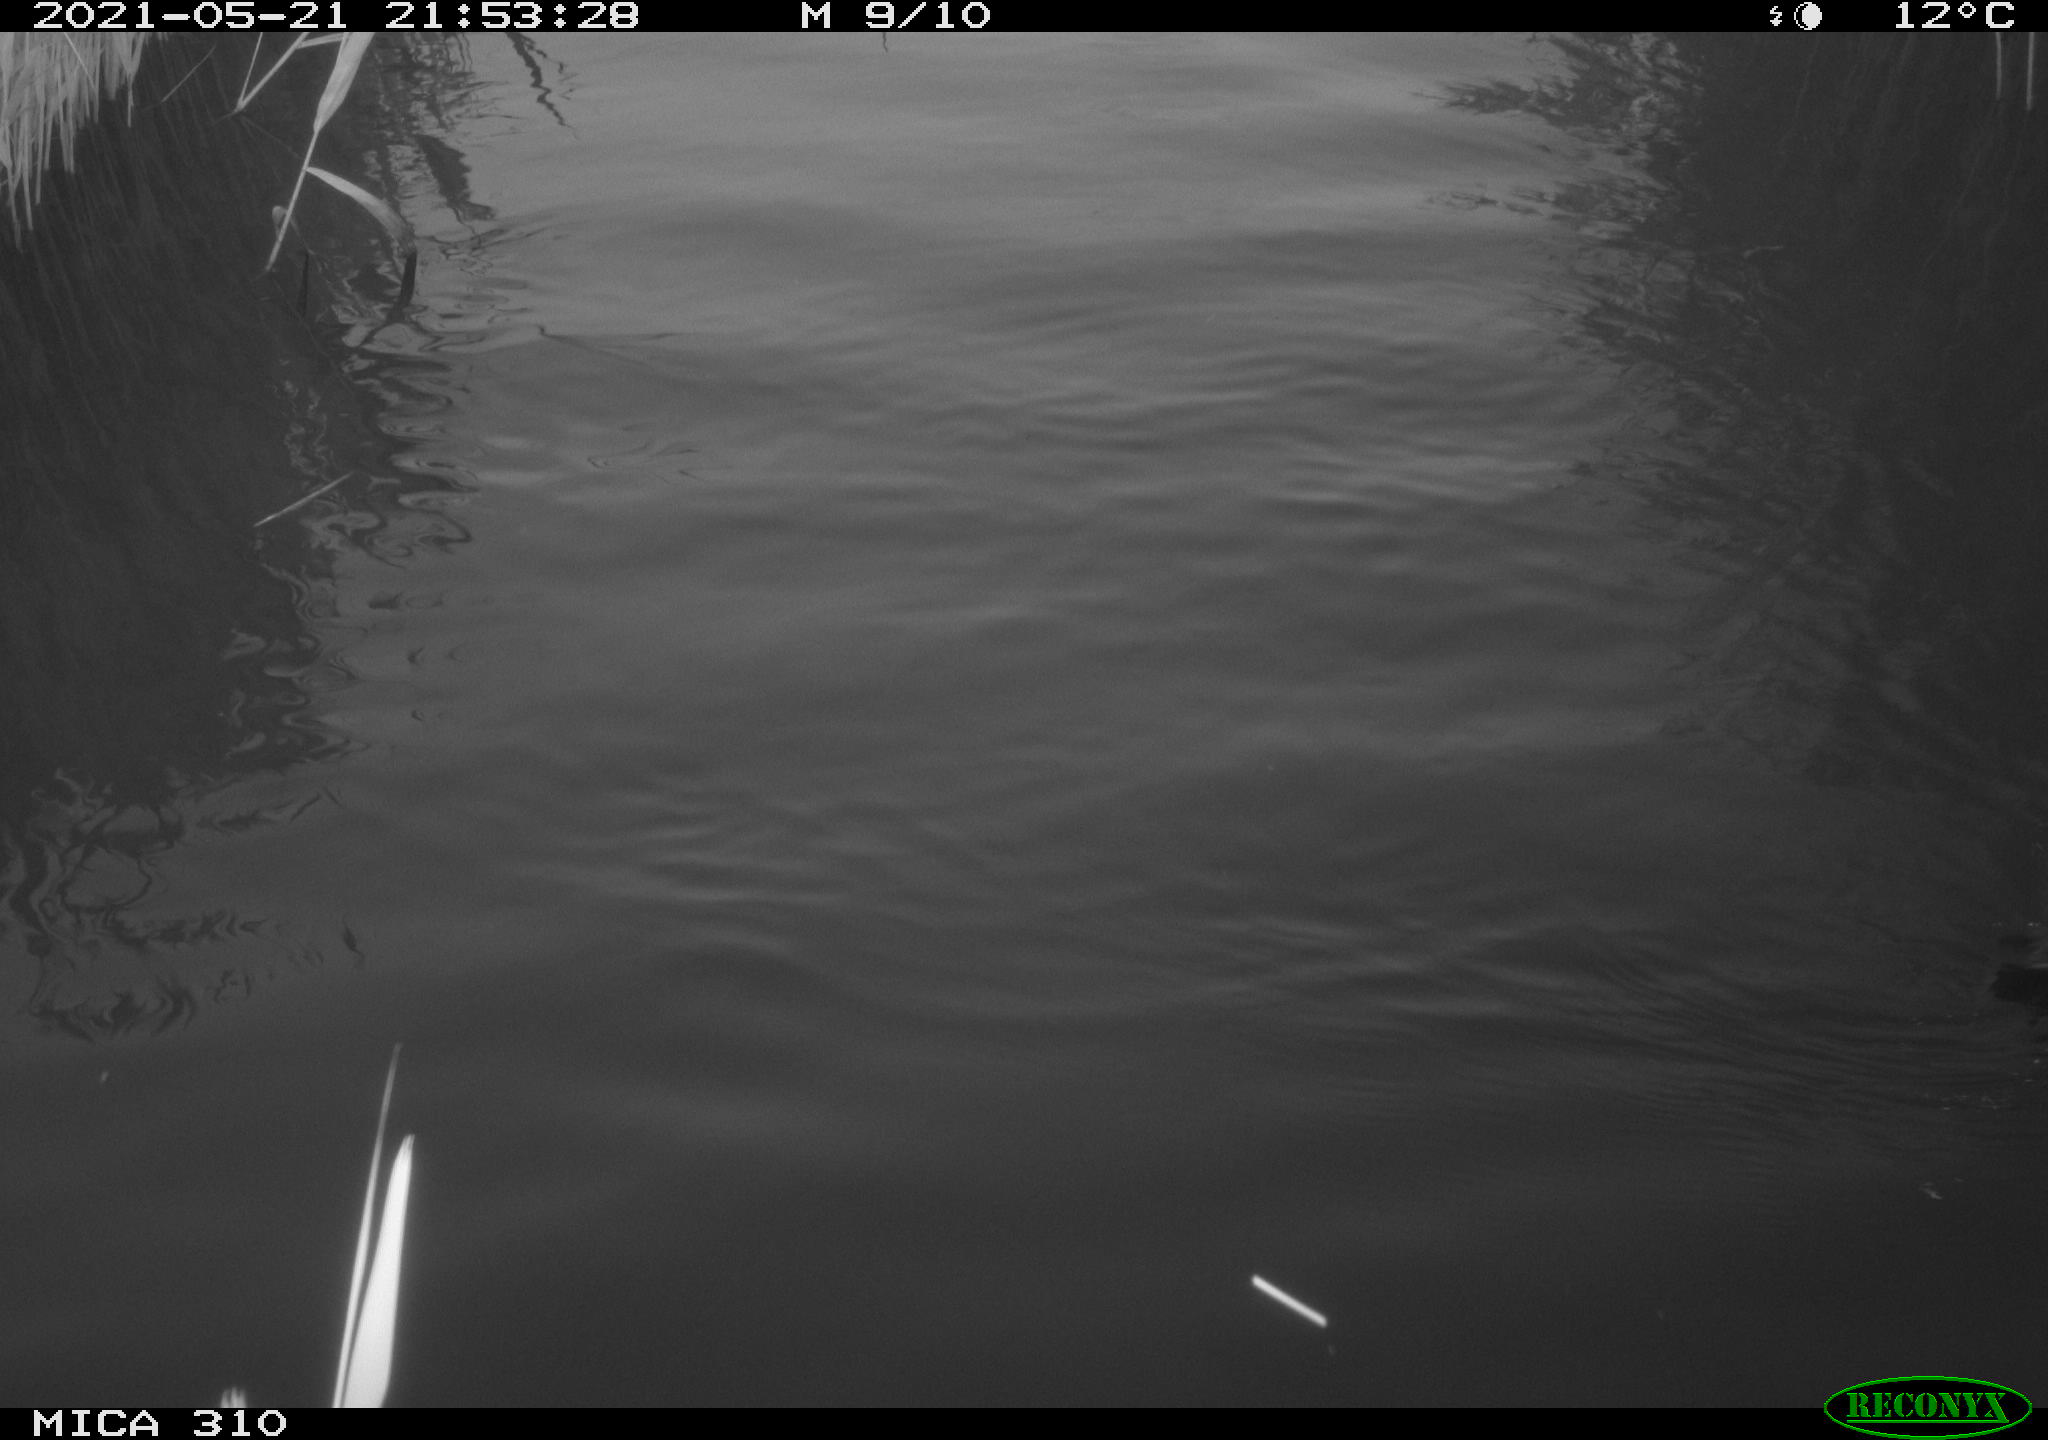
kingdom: Animalia
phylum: Chordata
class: Aves
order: Gruiformes
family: Rallidae
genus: Gallinula
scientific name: Gallinula chloropus
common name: Common moorhen
